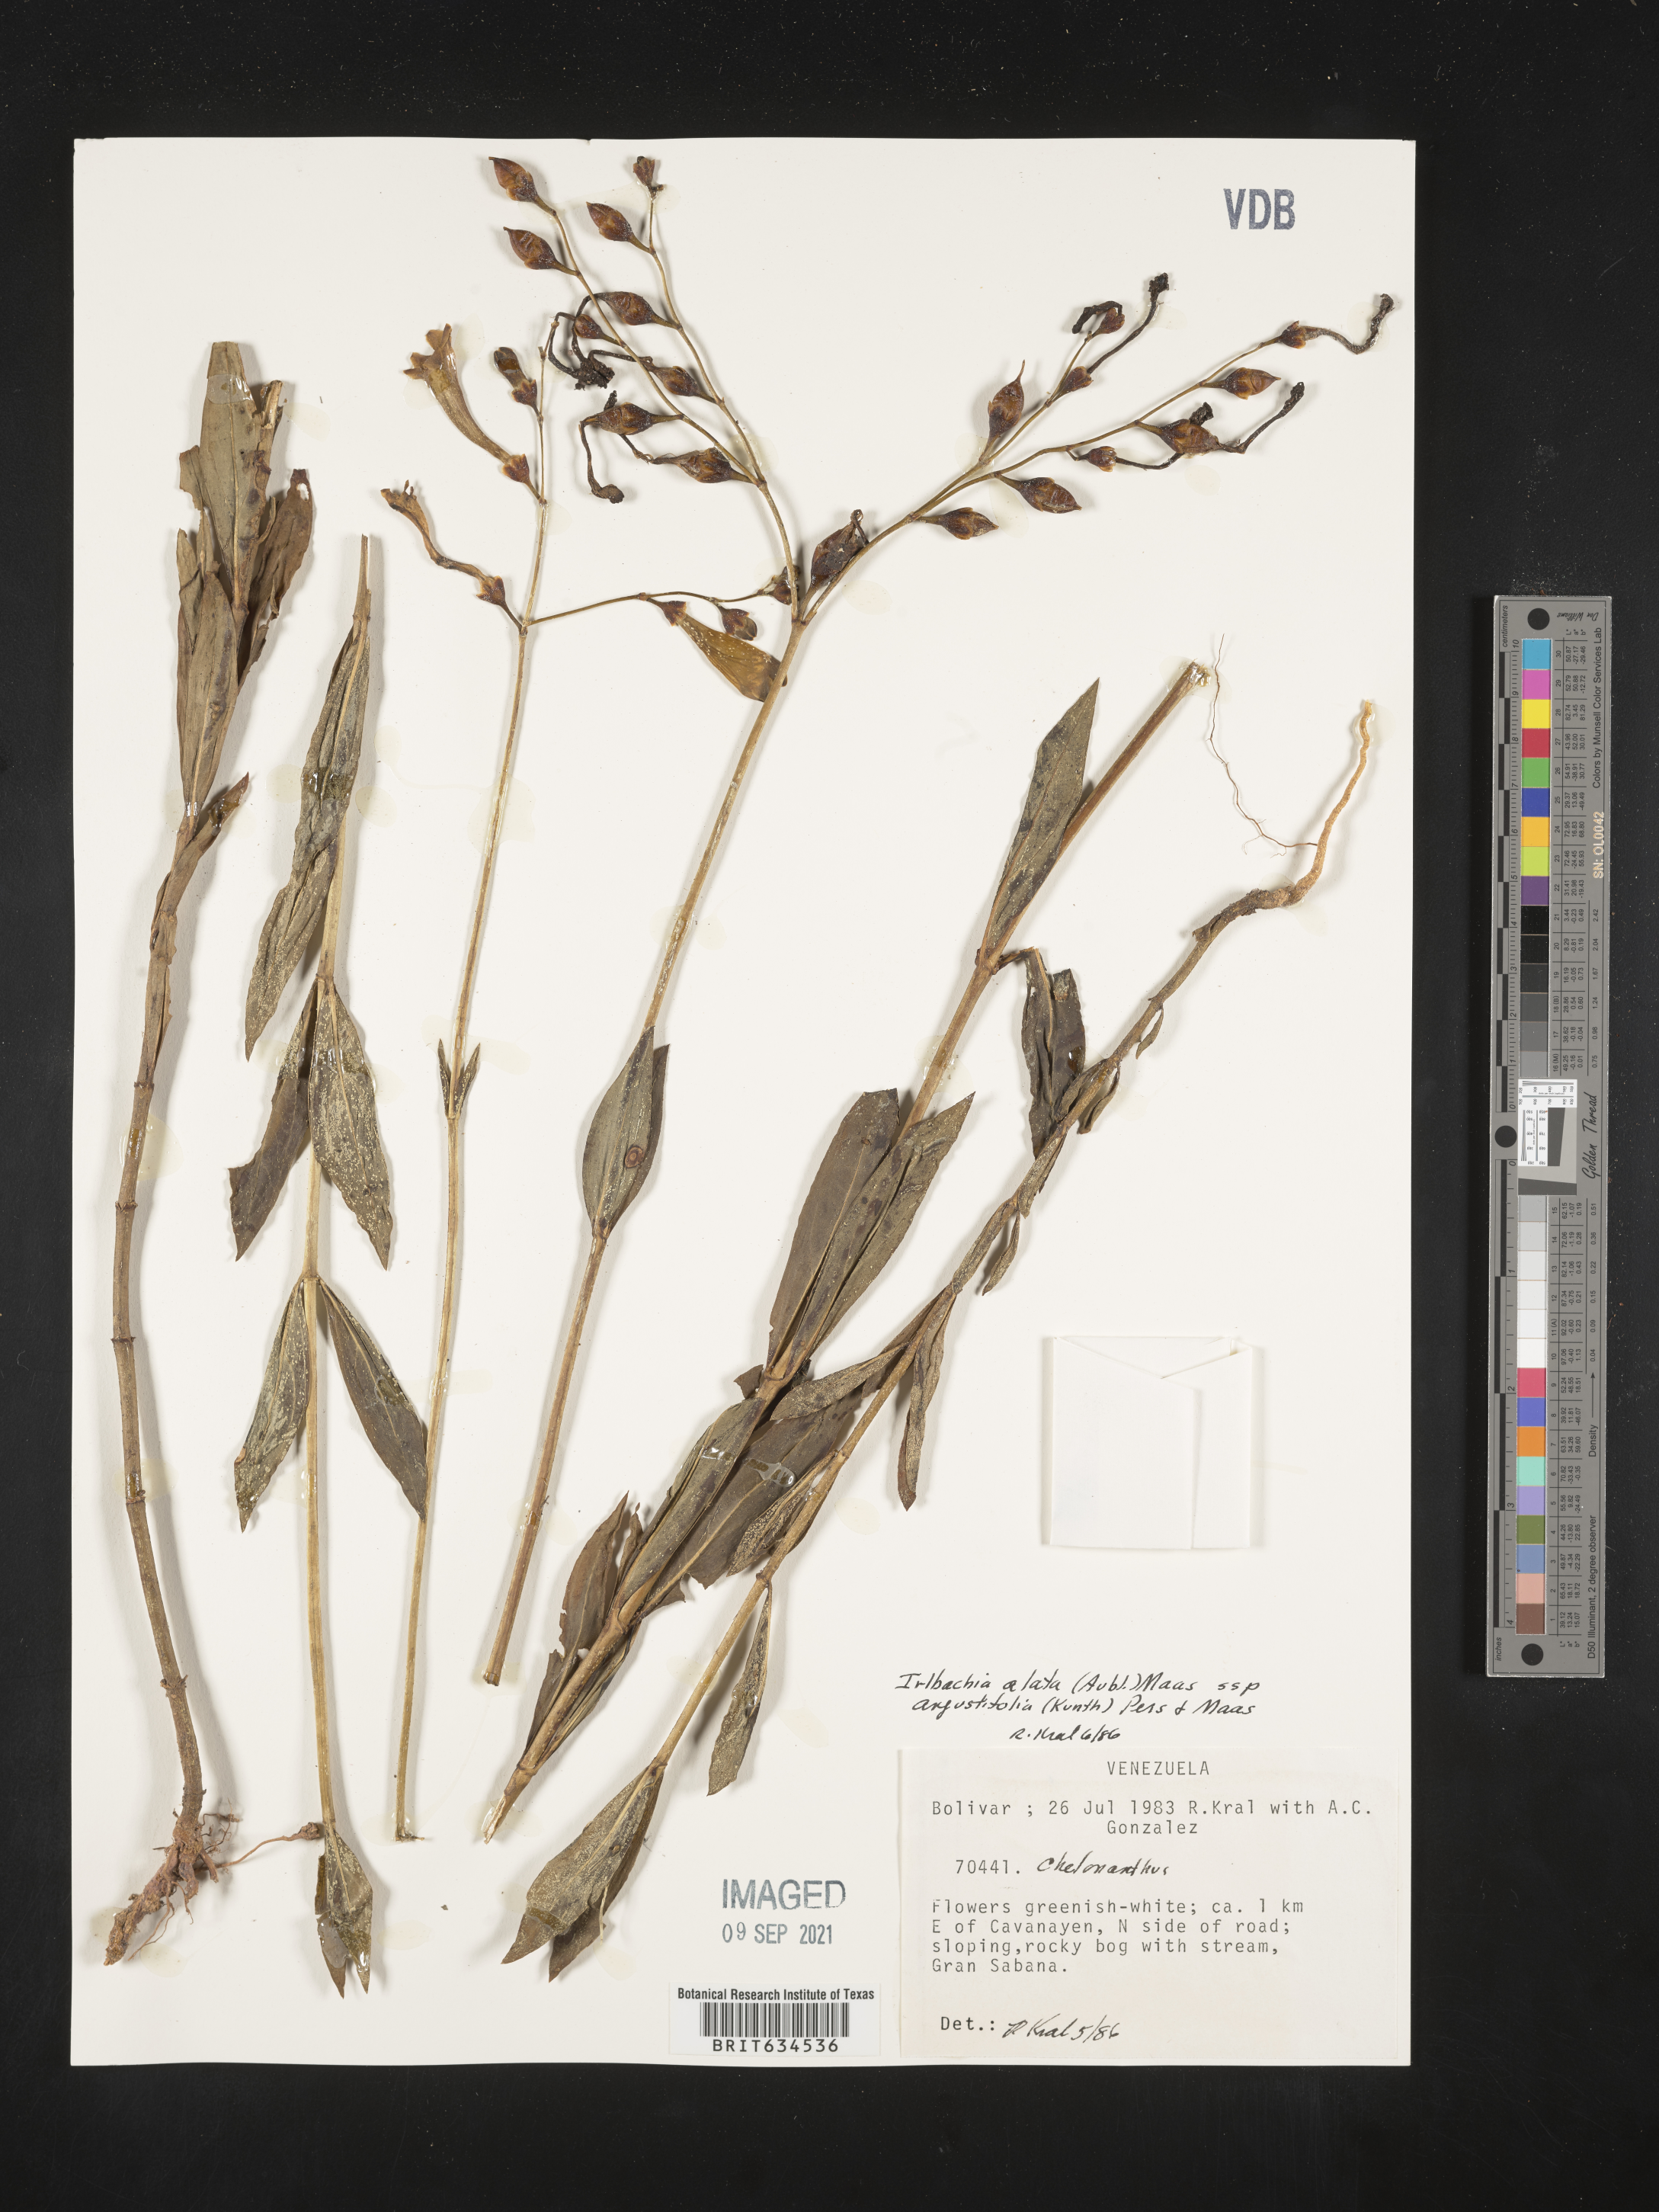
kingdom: Plantae
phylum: Tracheophyta
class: Magnoliopsida
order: Gentianales
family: Gentianaceae
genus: Irlbachia
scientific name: Irlbachia
